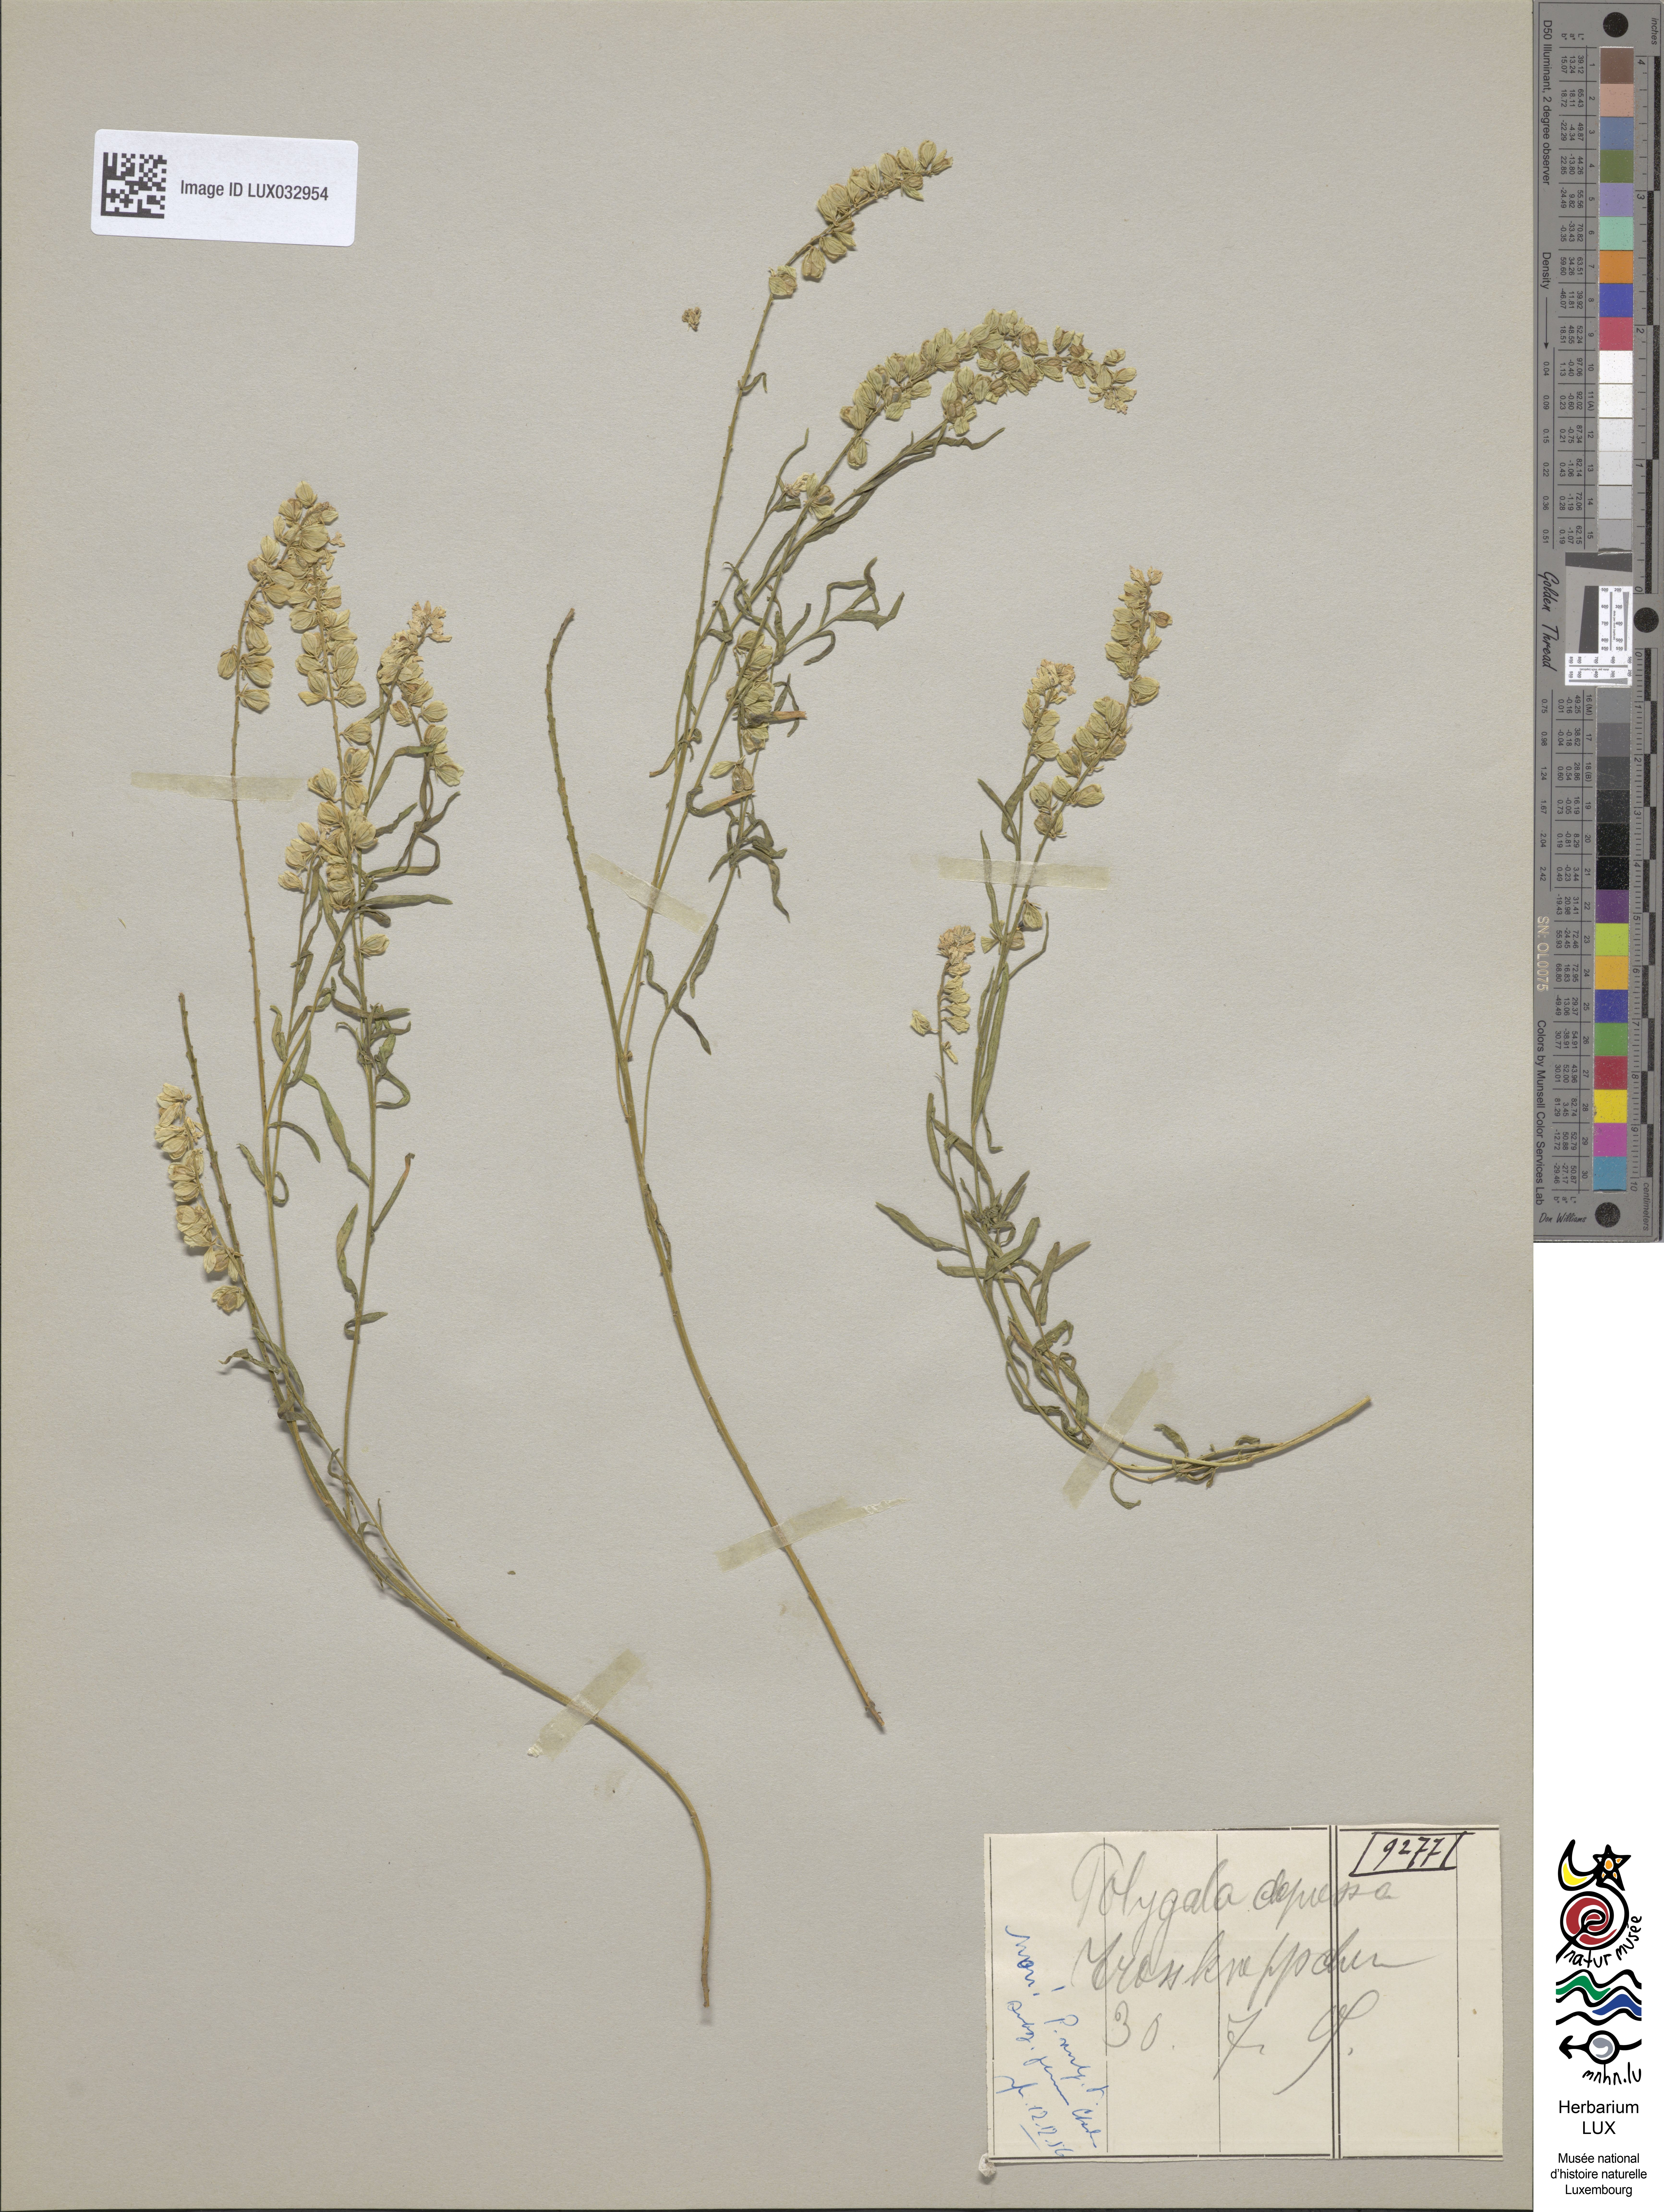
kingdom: Plantae
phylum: Tracheophyta
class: Magnoliopsida
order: Fabales
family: Polygalaceae
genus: Polygala
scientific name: Polygala serpyllifolia
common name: Heath milkwort
